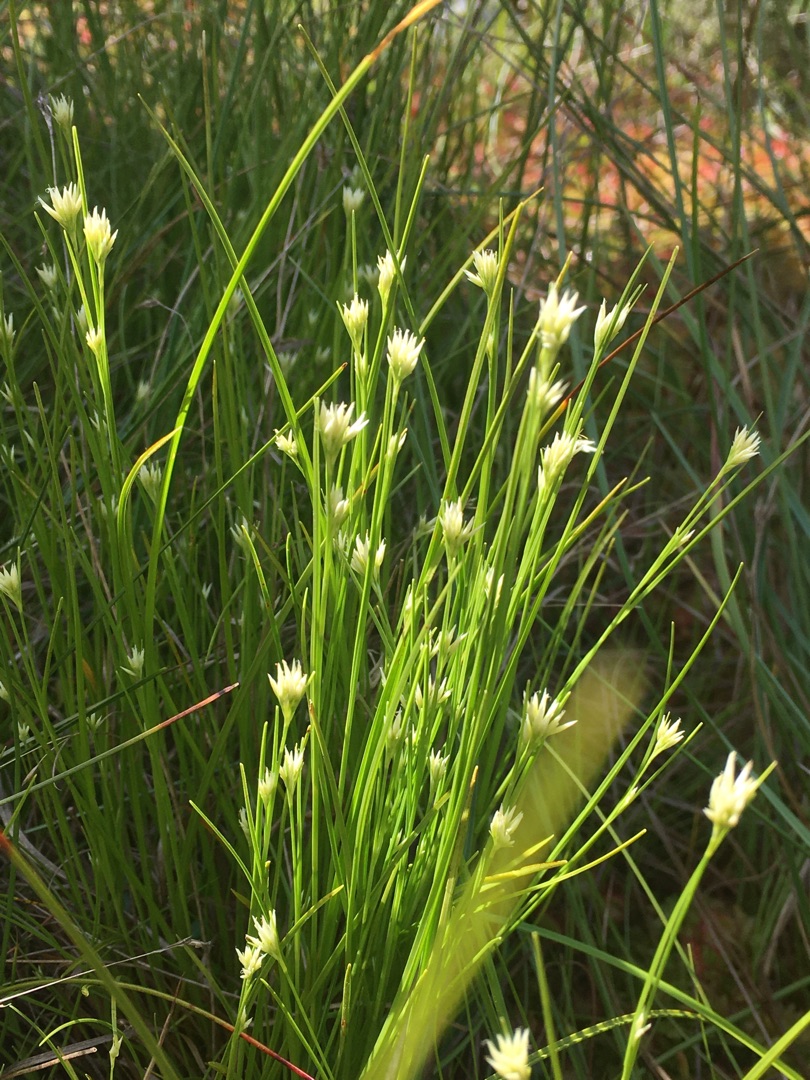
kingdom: Plantae
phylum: Tracheophyta
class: Liliopsida
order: Poales
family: Cyperaceae
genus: Rhynchospora
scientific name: Rhynchospora alba
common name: Hvid næbfrø
